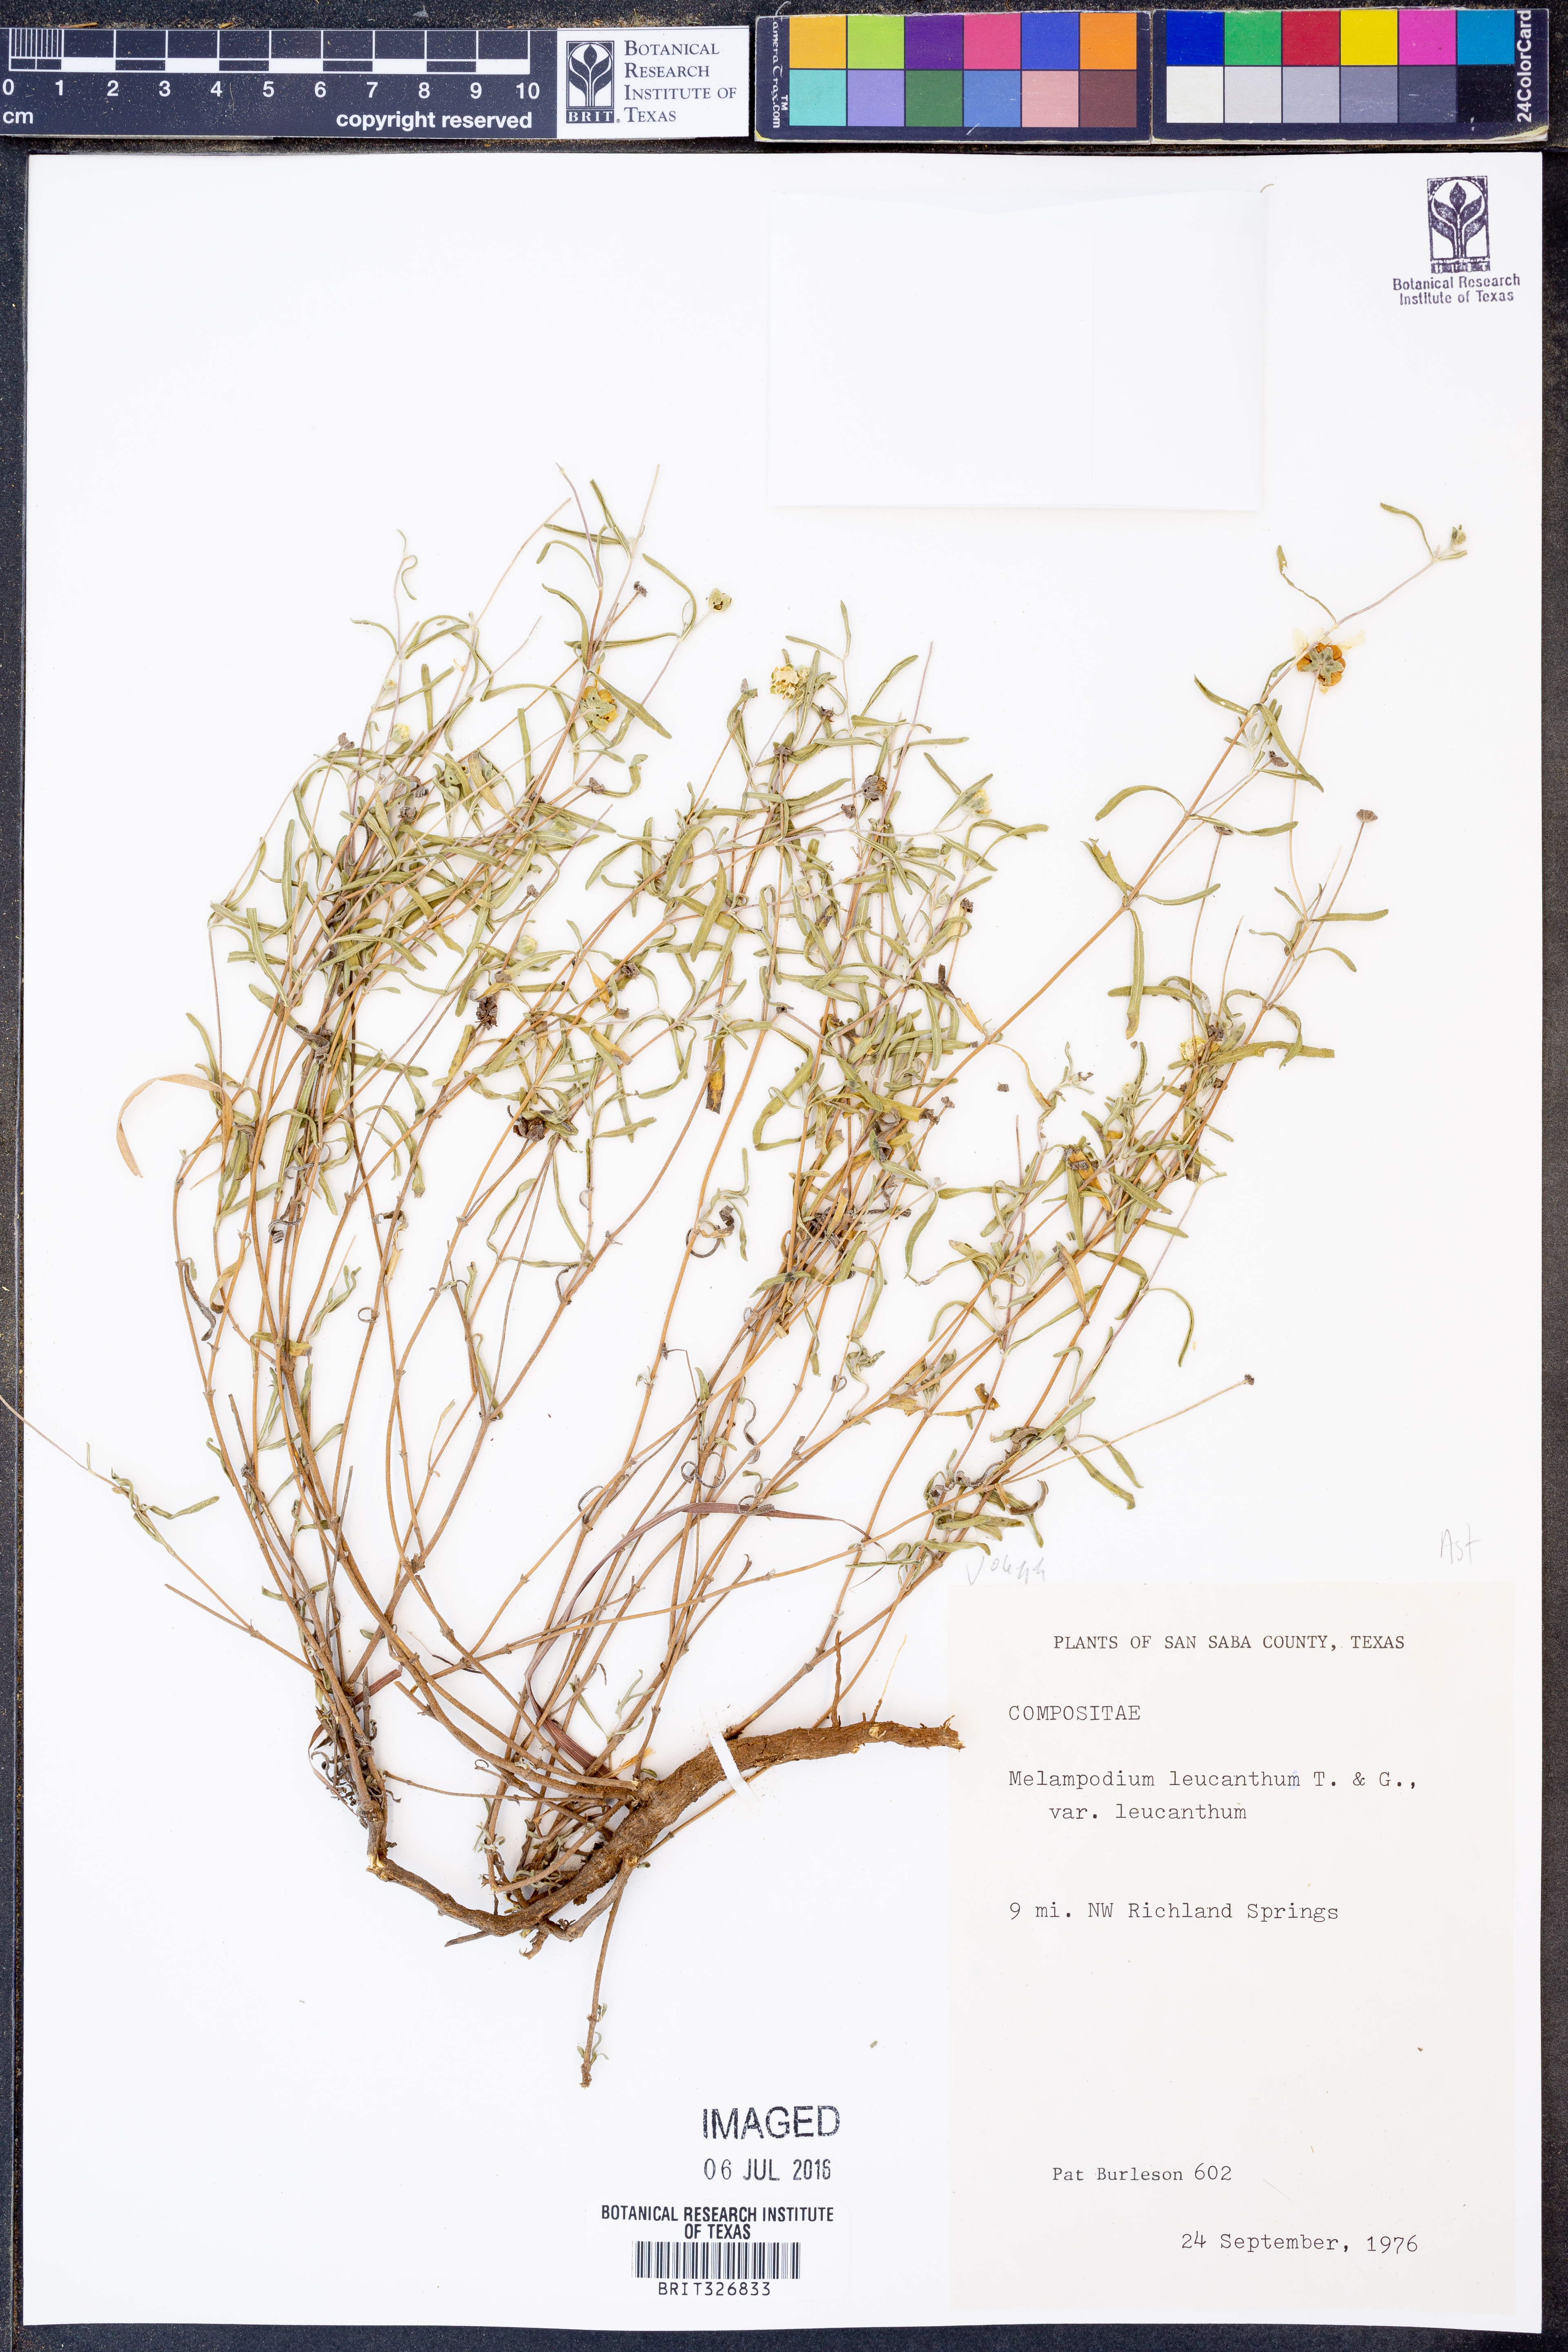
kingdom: Plantae
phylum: Tracheophyta
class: Magnoliopsida
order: Asterales
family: Asteraceae
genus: Melampodium
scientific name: Melampodium leucanthum
